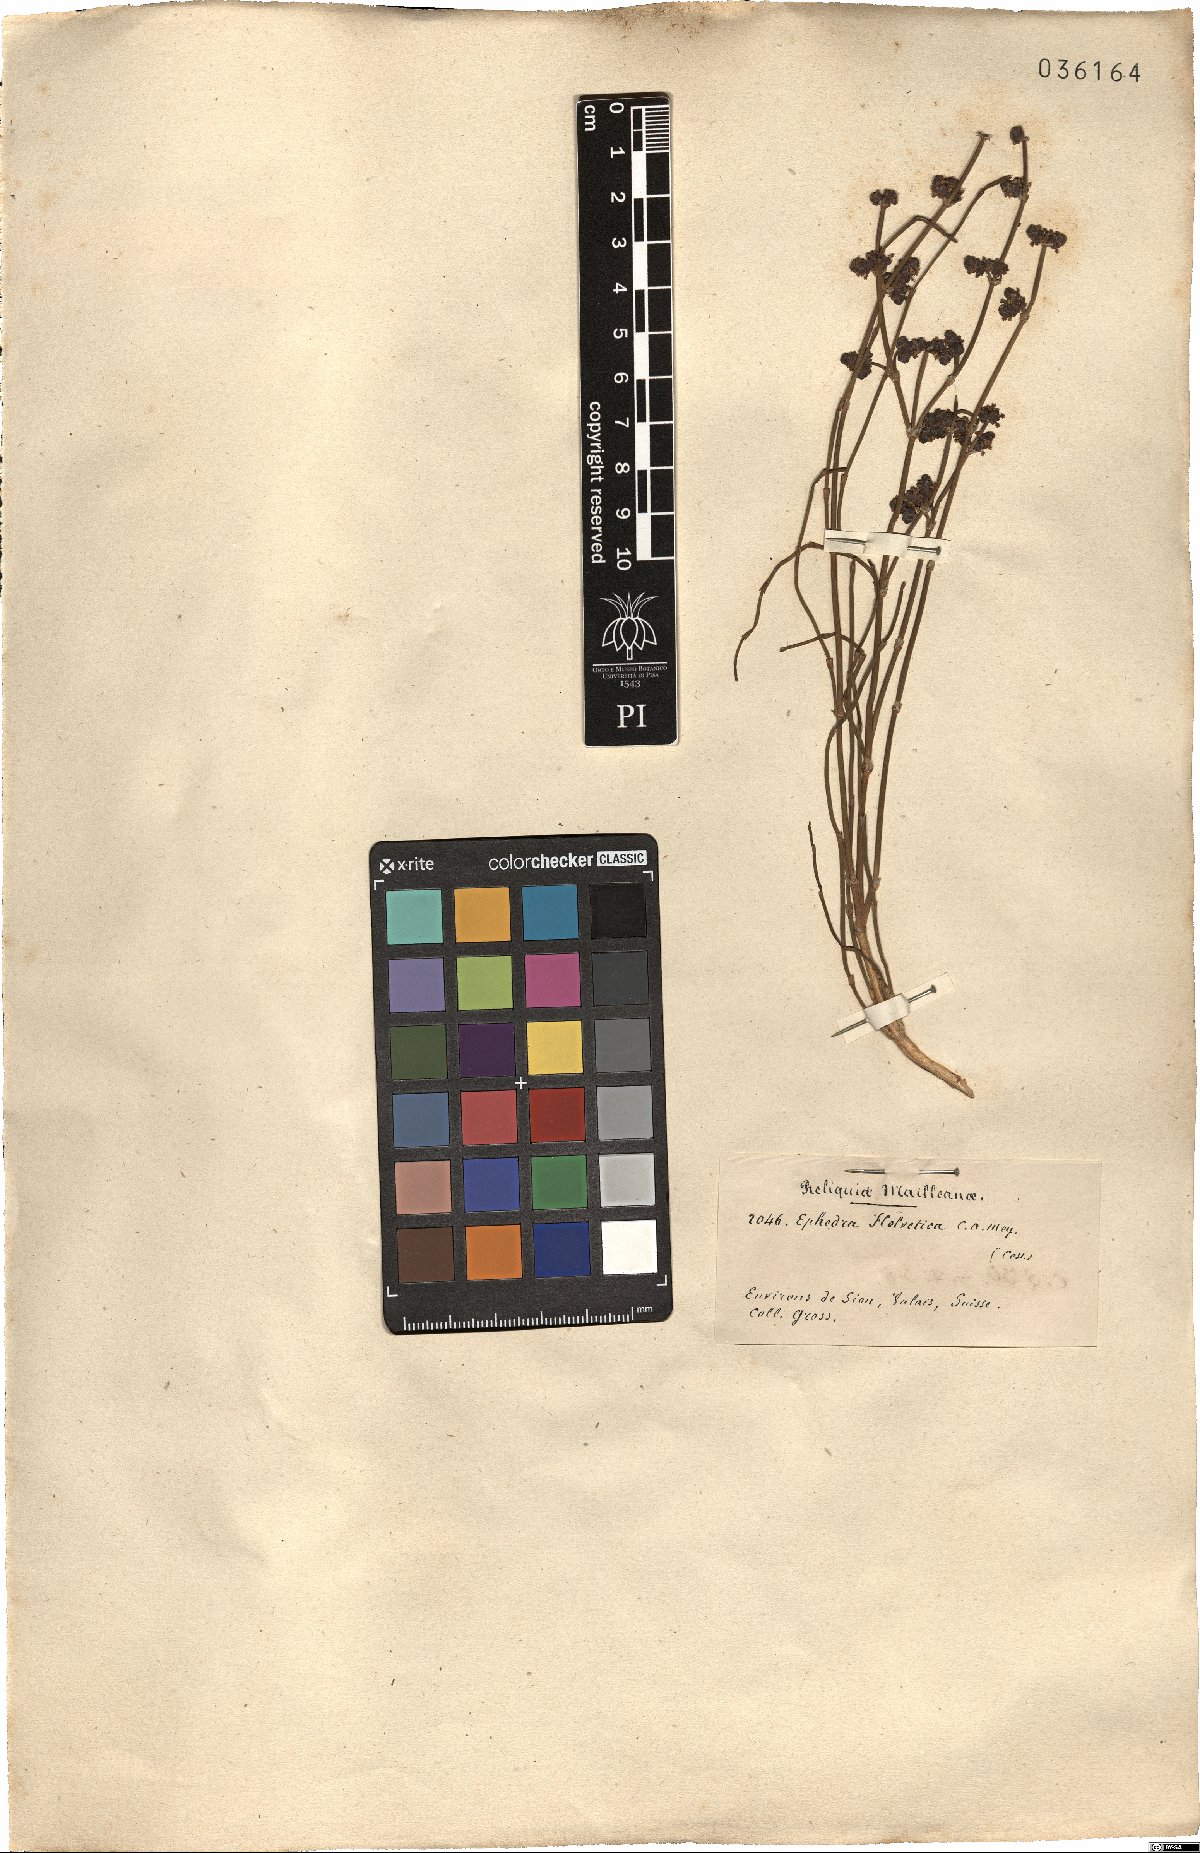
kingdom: Plantae
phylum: Tracheophyta
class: Gnetopsida
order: Ephedrales
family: Ephedraceae
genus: Ephedra
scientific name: Ephedra distachya
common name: Sea grape
